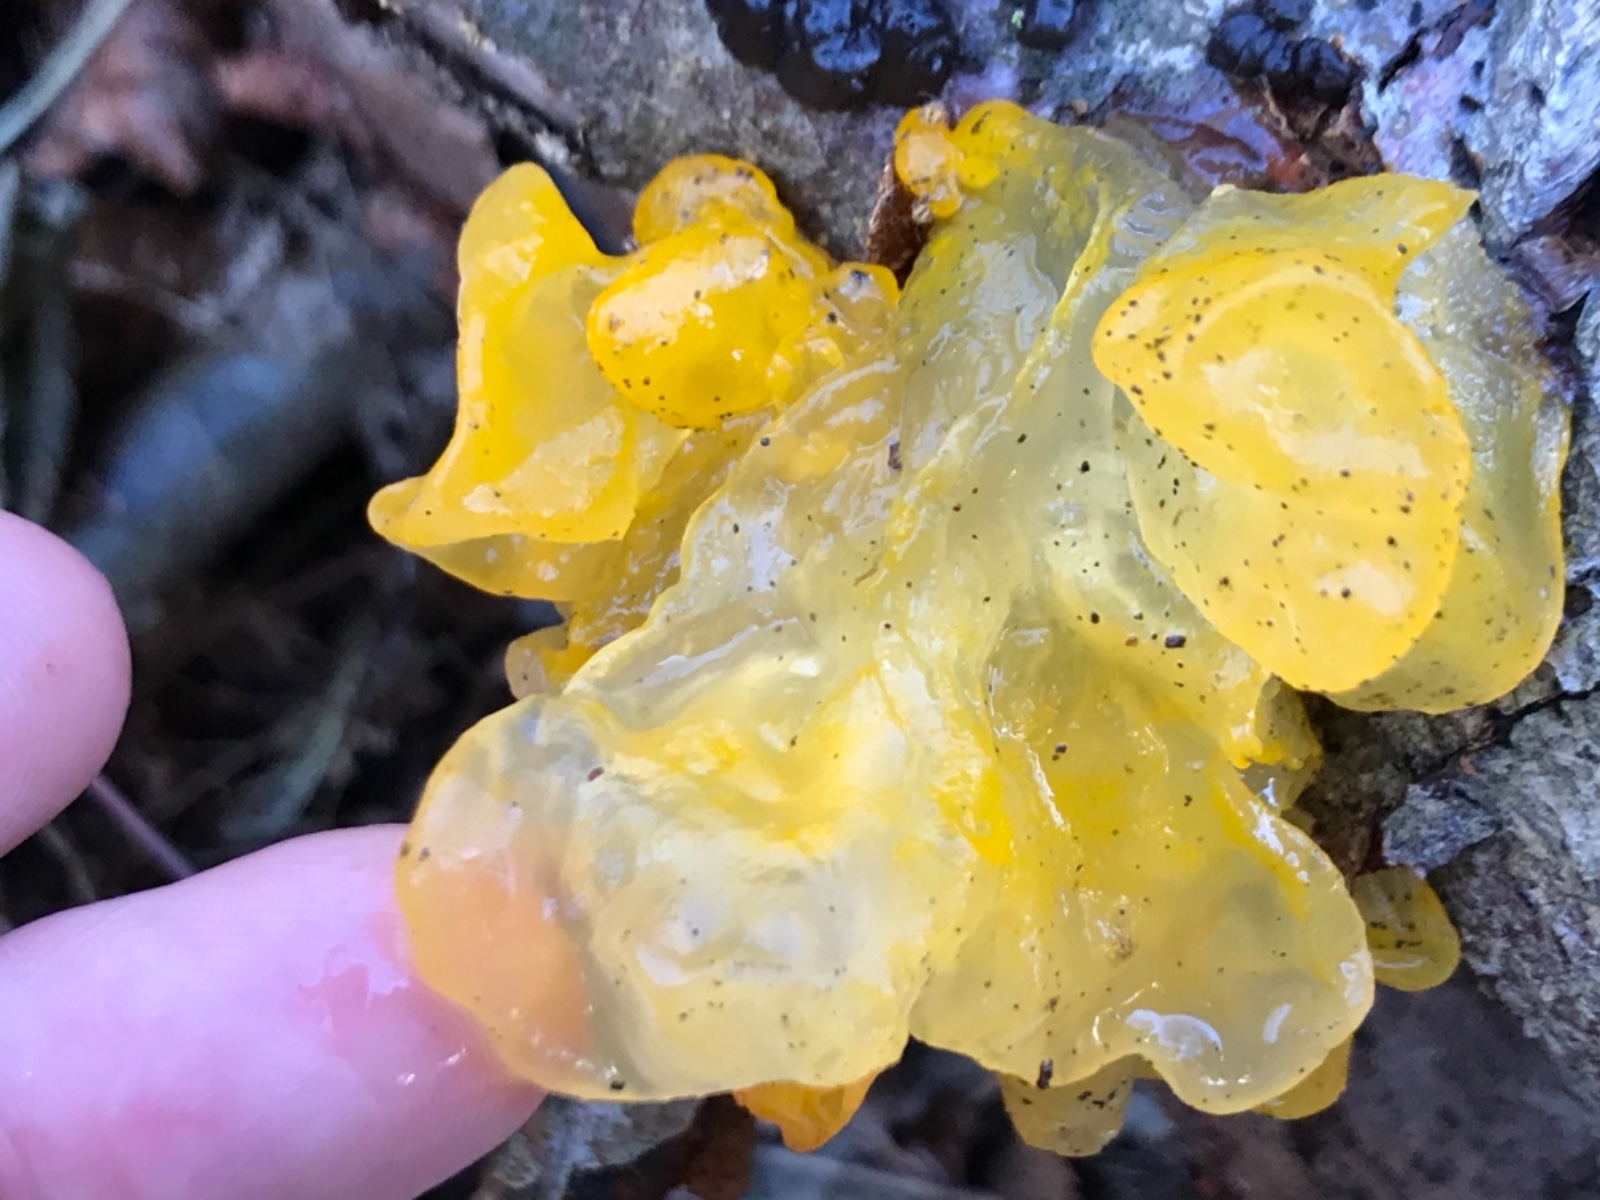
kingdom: Fungi
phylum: Basidiomycota
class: Tremellomycetes
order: Tremellales
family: Tremellaceae
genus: Tremella
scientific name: Tremella mesenterica
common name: gul bævresvamp
